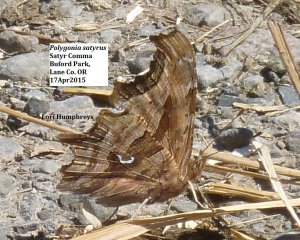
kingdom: Animalia
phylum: Arthropoda
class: Insecta
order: Lepidoptera
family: Nymphalidae
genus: Polygonia
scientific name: Polygonia satyrus
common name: Satyr Comma
